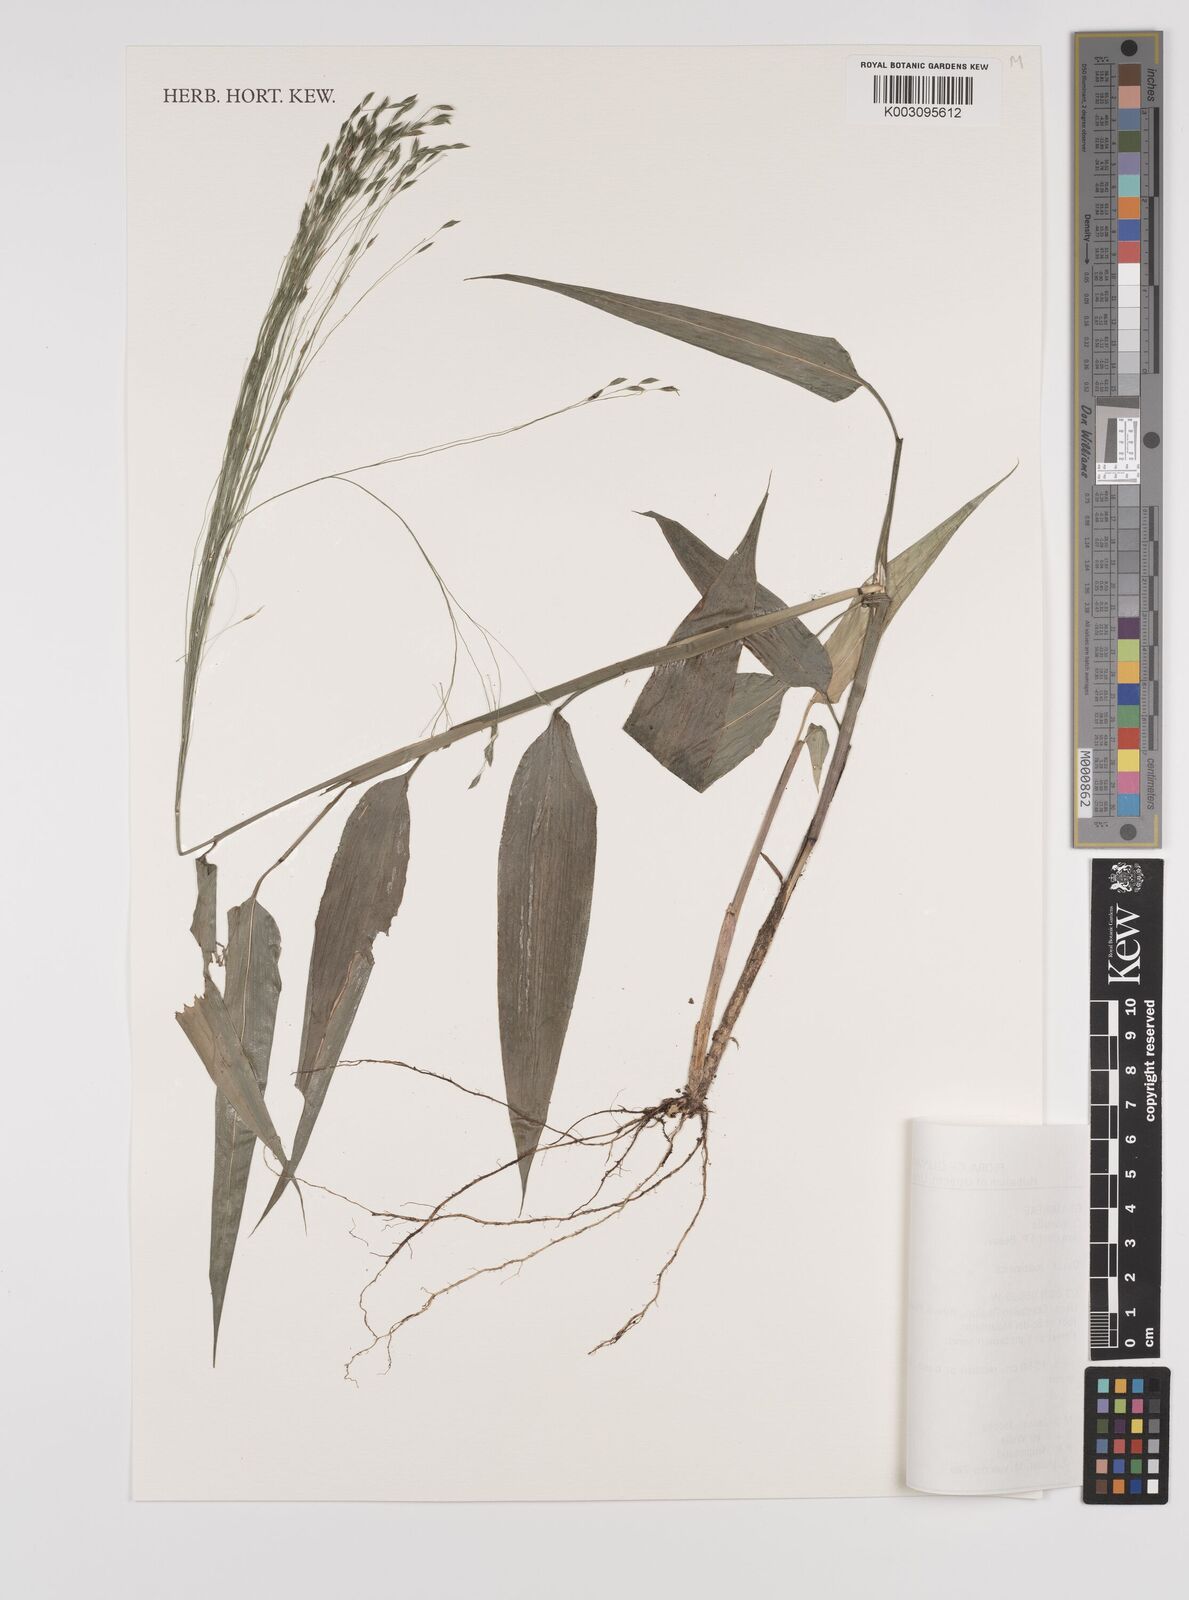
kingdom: Plantae
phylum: Tracheophyta
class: Liliopsida
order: Poales
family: Poaceae
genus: Orthoclada
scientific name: Orthoclada laxa
